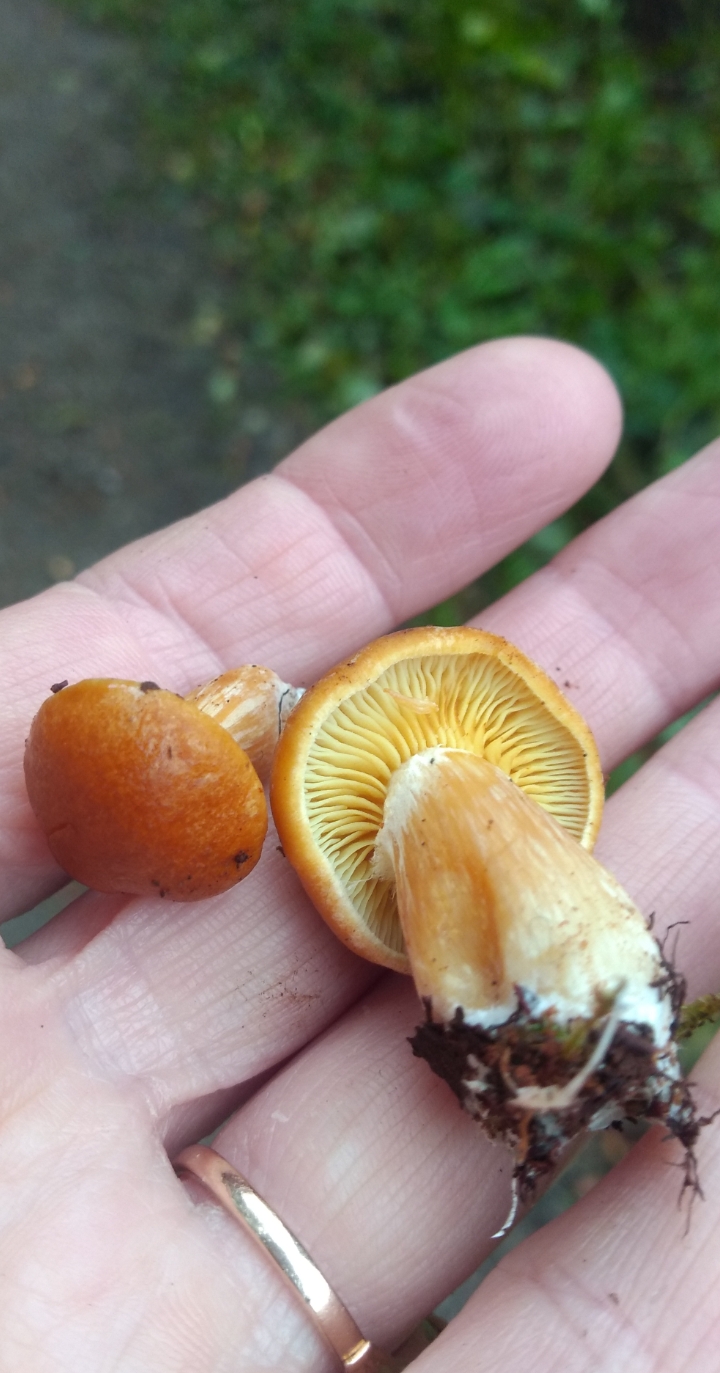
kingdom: Fungi
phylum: Basidiomycota
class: Agaricomycetes
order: Agaricales
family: Hymenogastraceae
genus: Gymnopilus
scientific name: Gymnopilus
